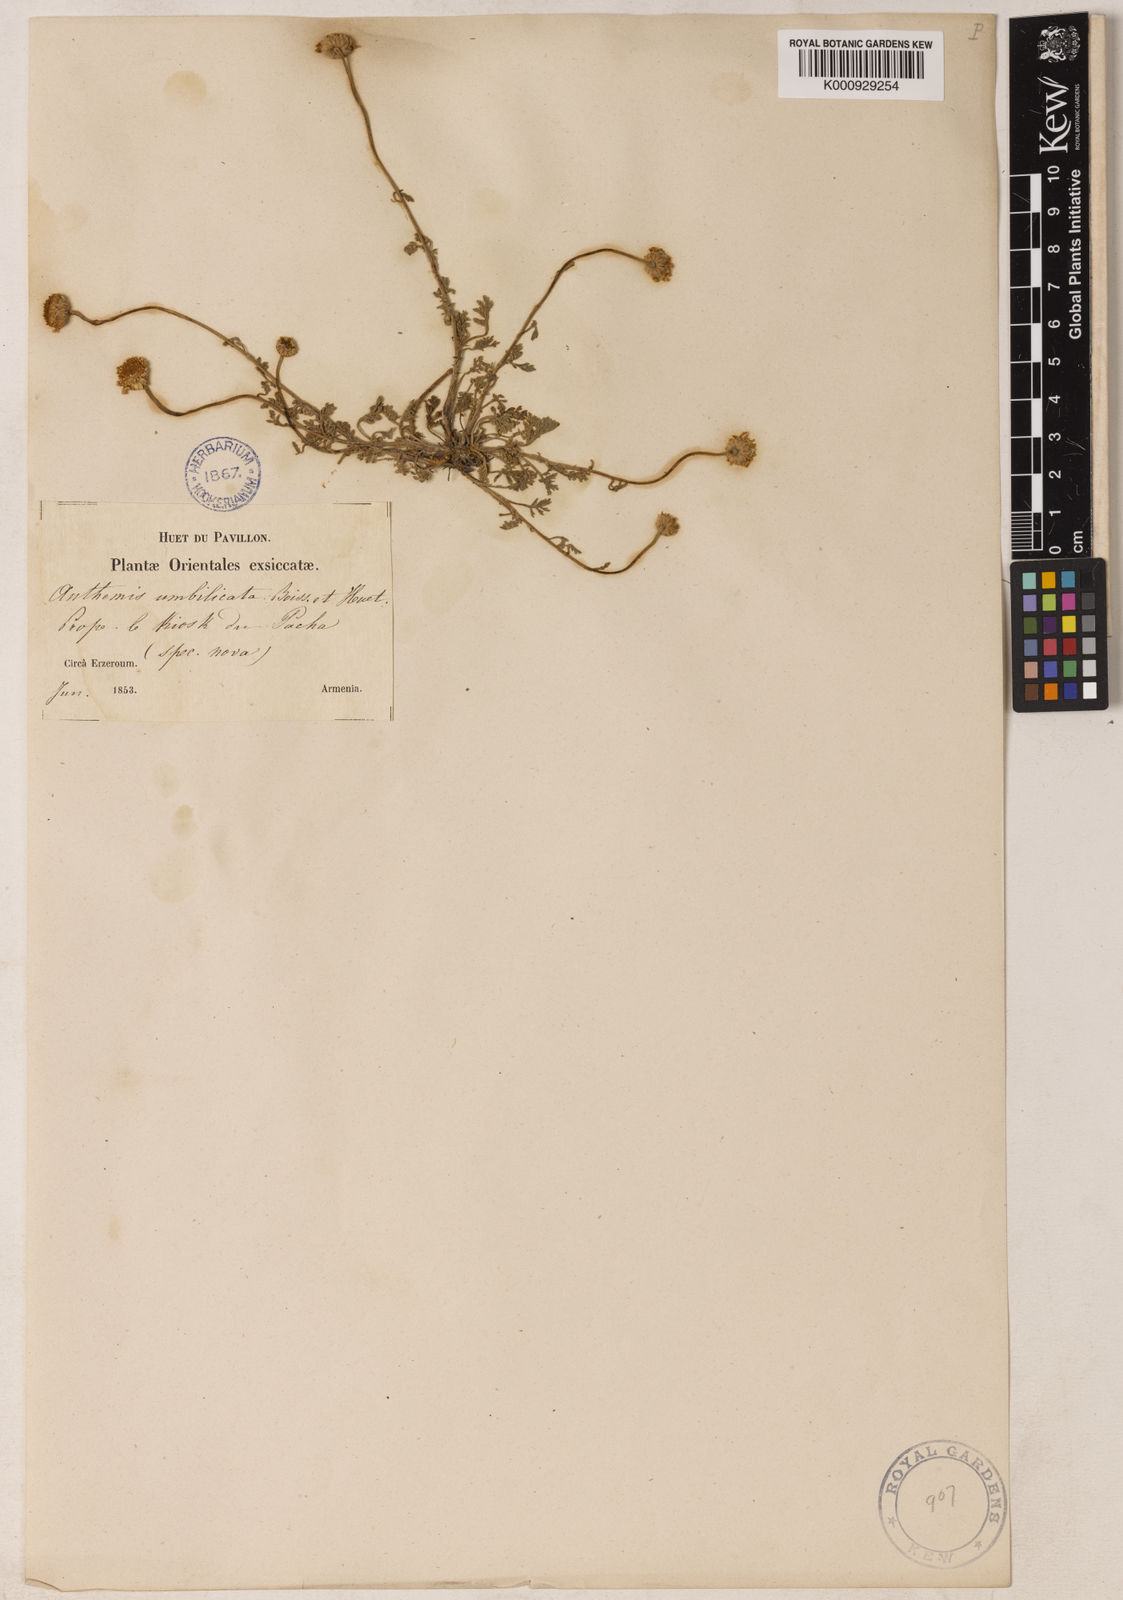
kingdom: Plantae
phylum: Tracheophyta
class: Magnoliopsida
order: Asterales
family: Asteraceae
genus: Anthemis
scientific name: Anthemis cretica
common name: Mountain dog-daisy
